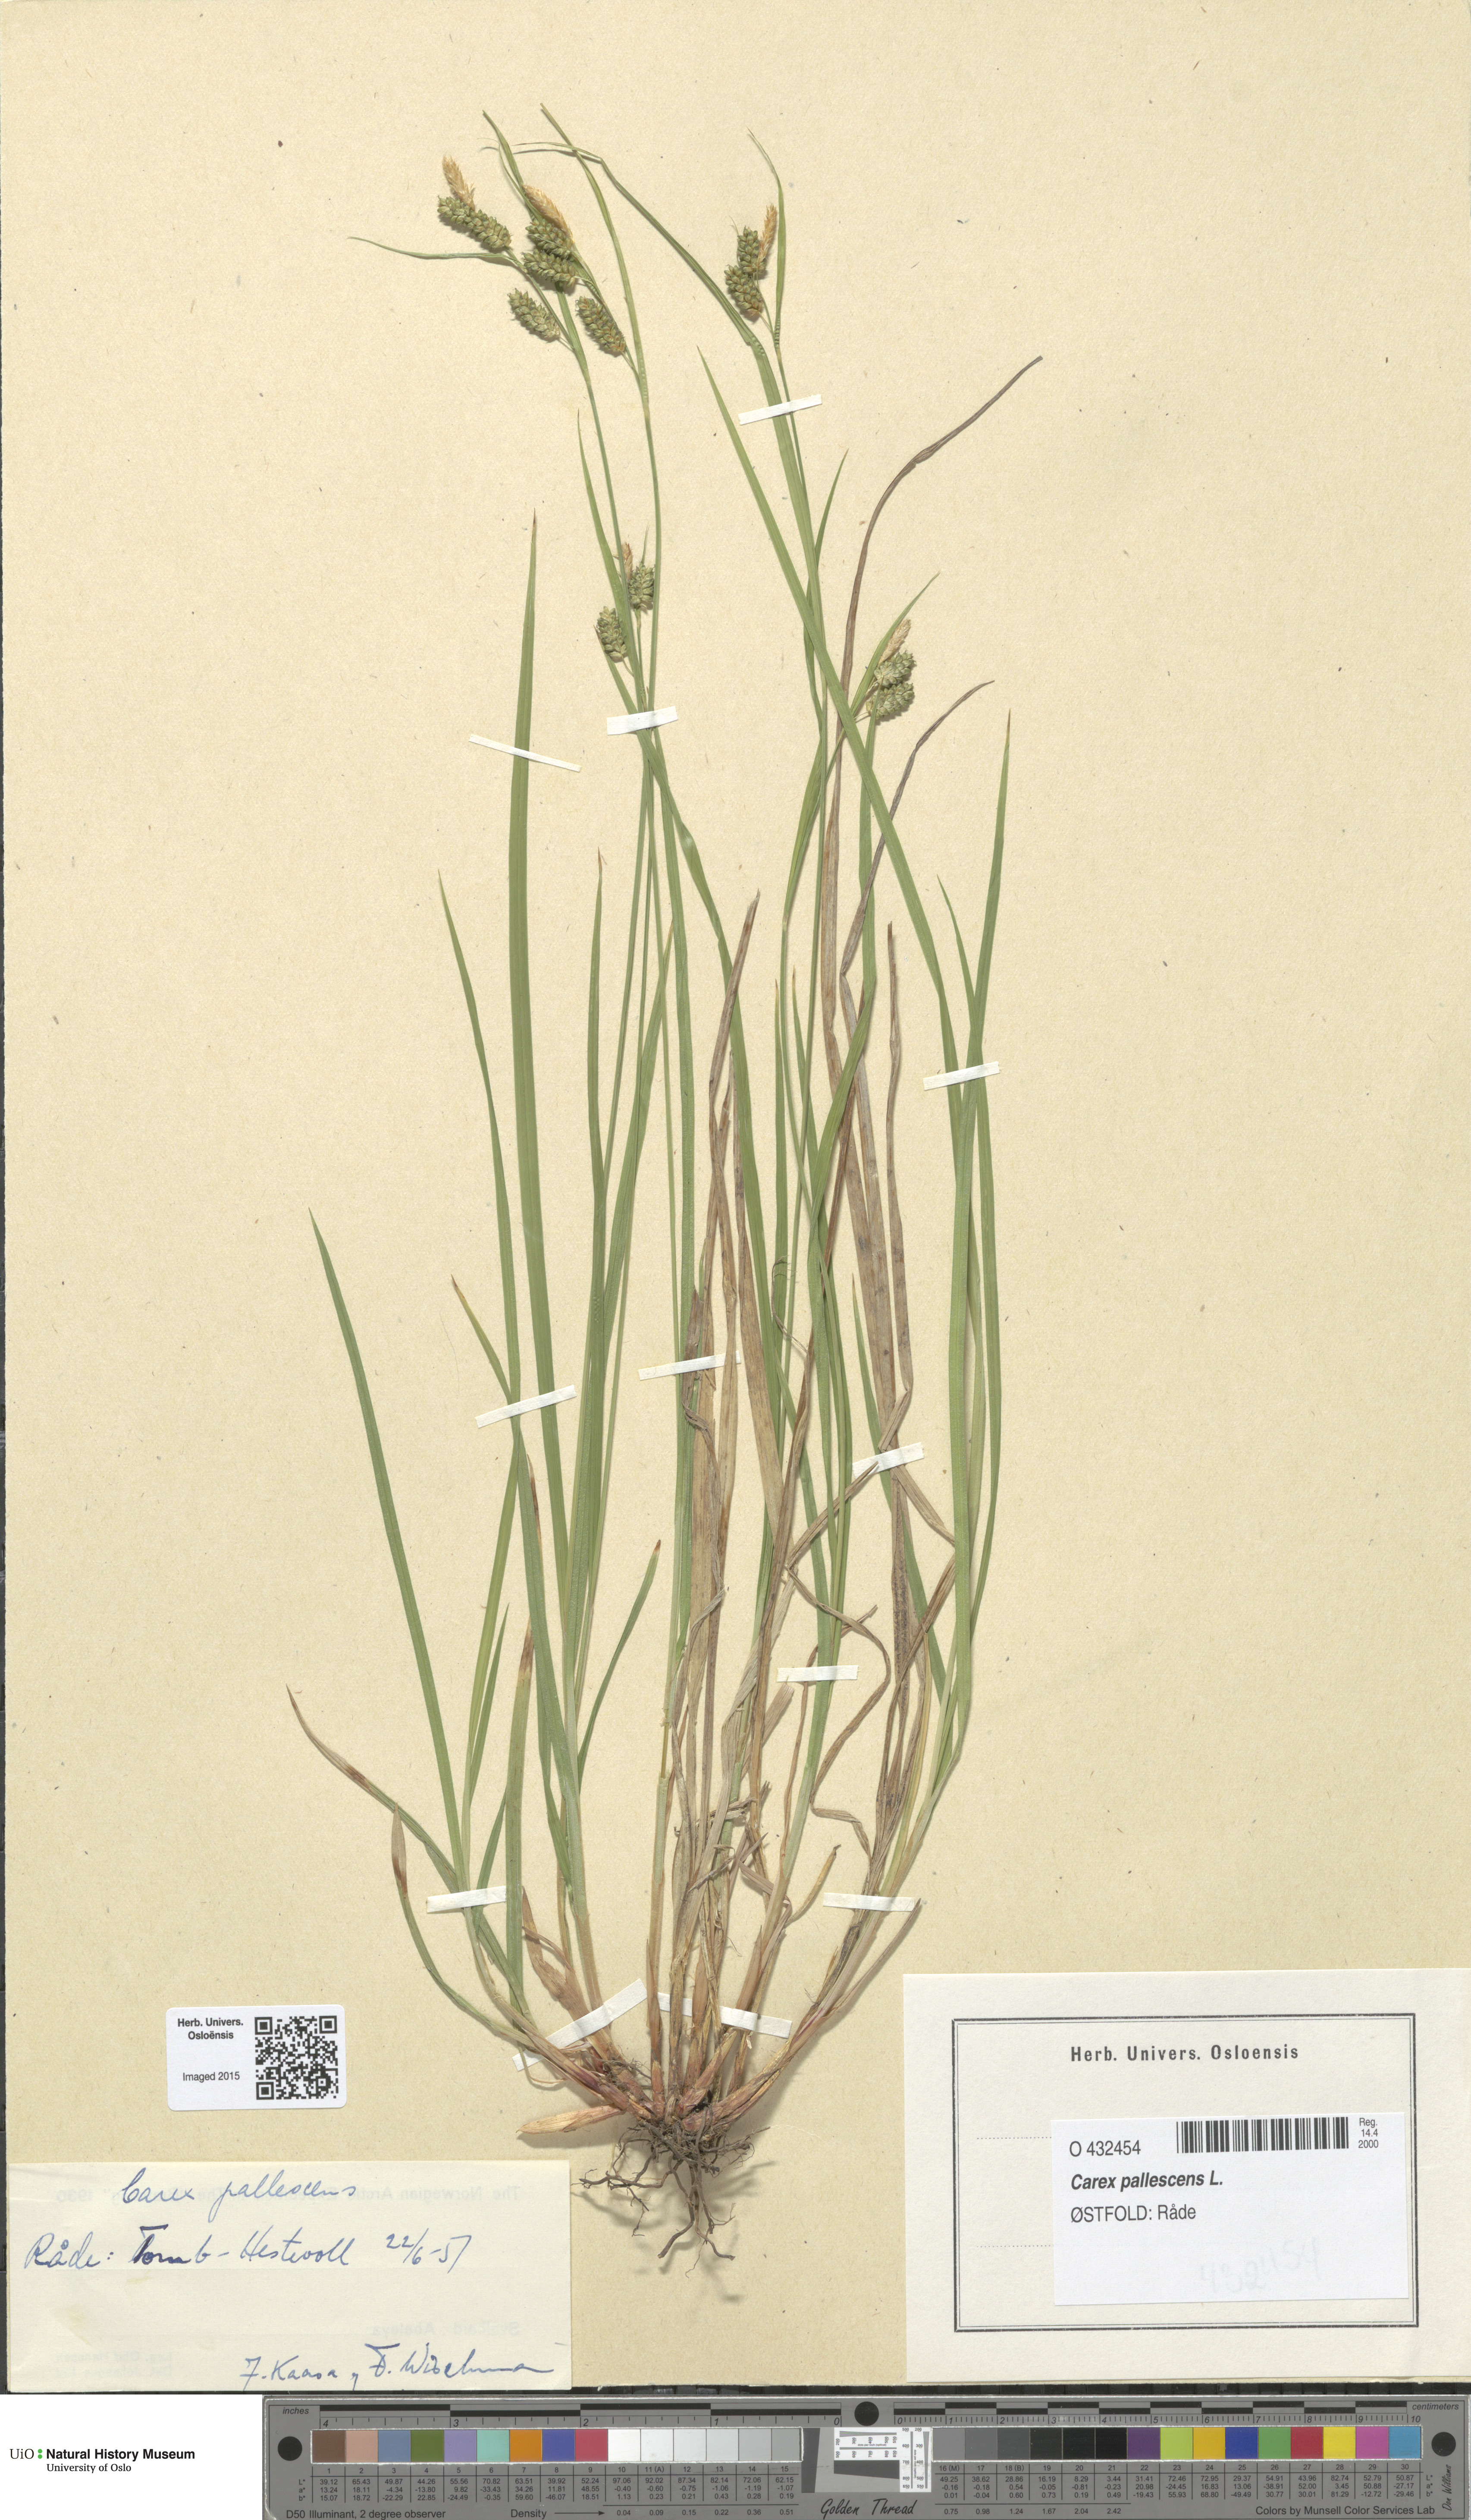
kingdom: Plantae
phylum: Tracheophyta
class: Liliopsida
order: Poales
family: Cyperaceae
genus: Carex
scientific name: Carex pallescens
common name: Pale sedge
